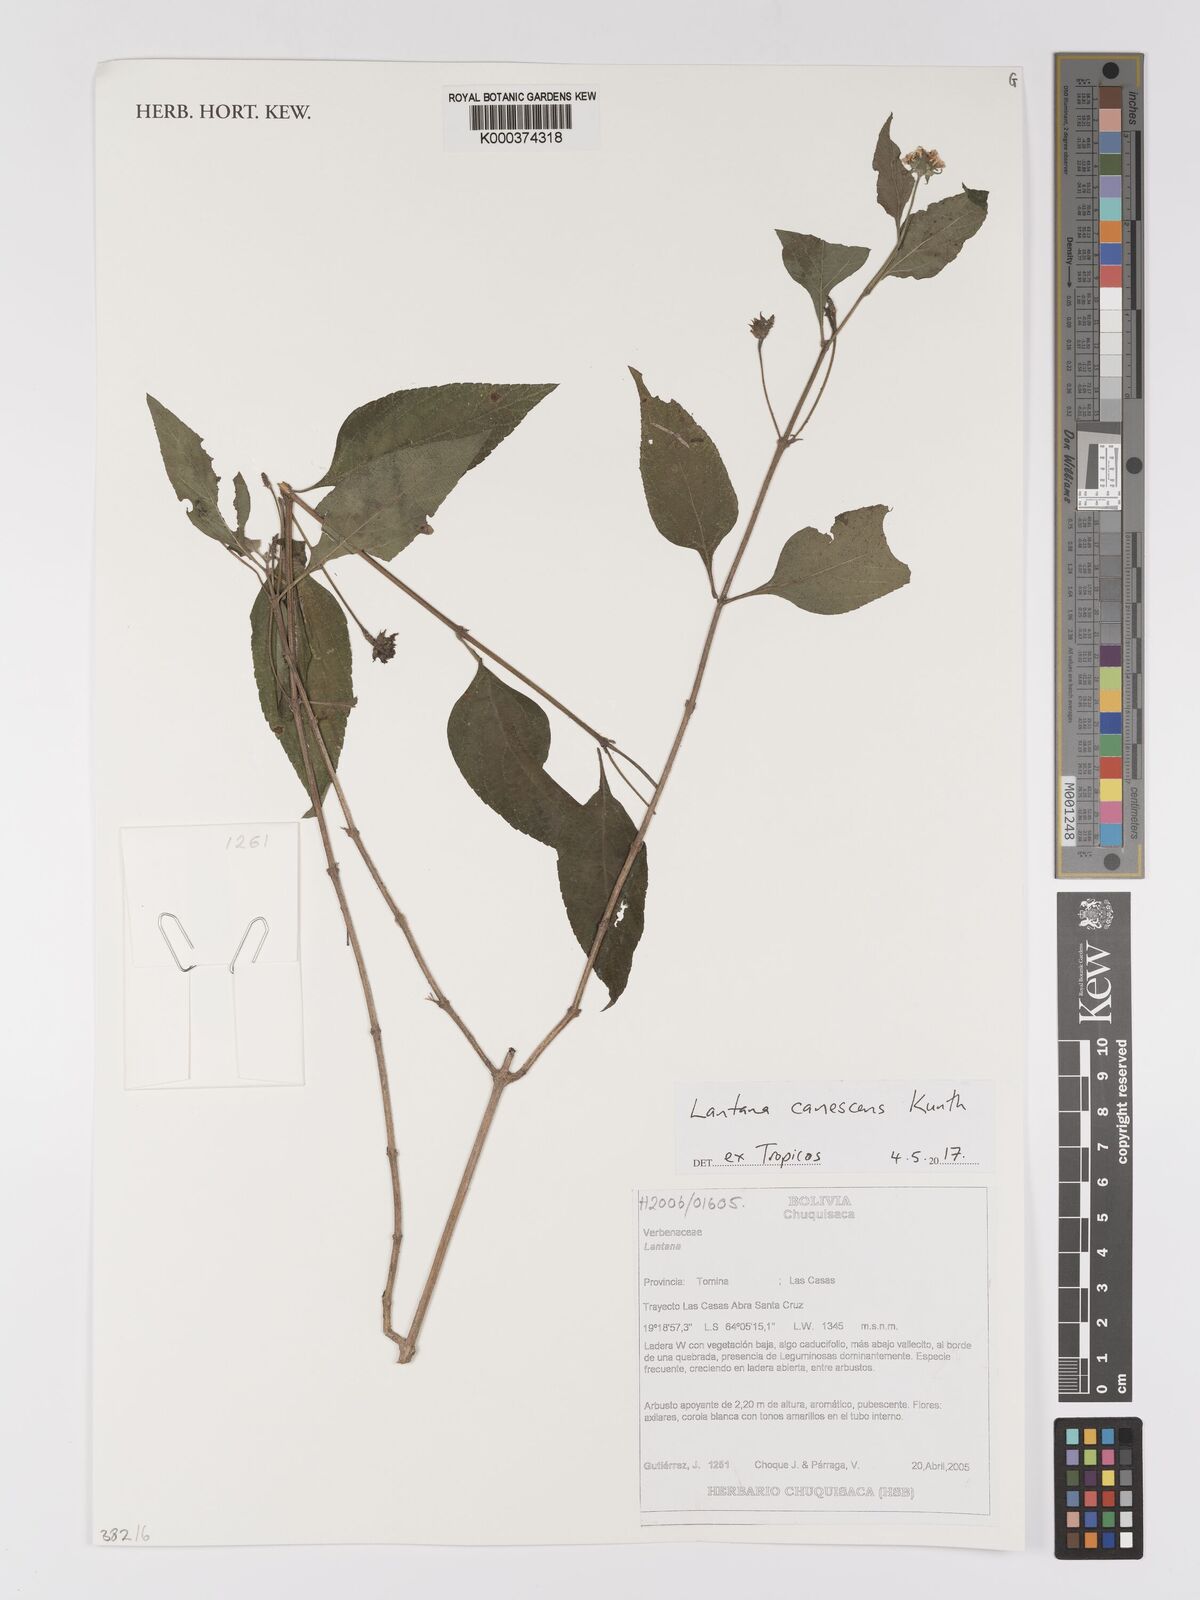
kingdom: Plantae
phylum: Tracheophyta
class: Magnoliopsida
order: Lamiales
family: Verbenaceae
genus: Lantana
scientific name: Lantana canescens
